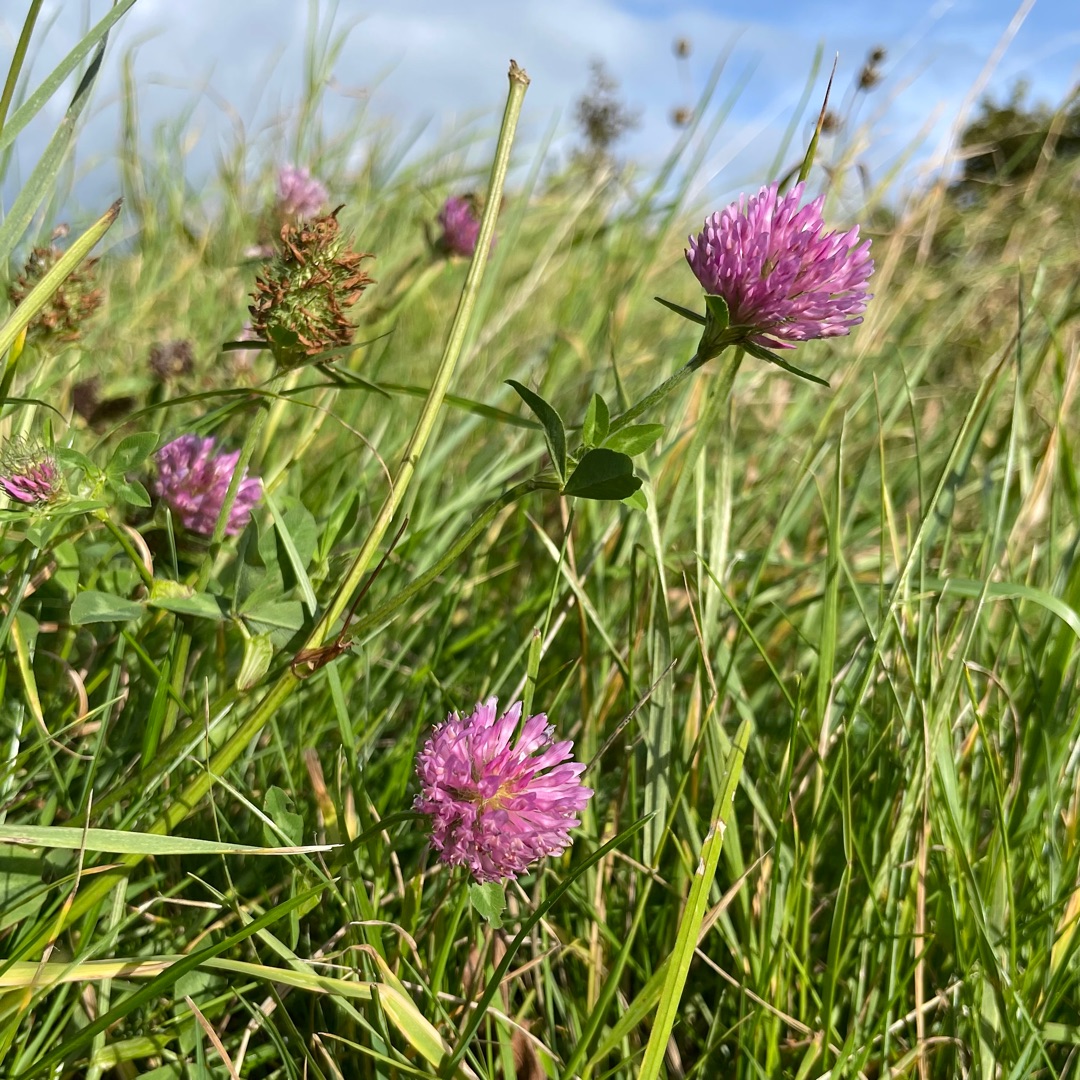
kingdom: Plantae
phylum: Tracheophyta
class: Magnoliopsida
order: Fabales
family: Fabaceae
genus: Trifolium
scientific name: Trifolium pratense
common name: Rød-kløver
